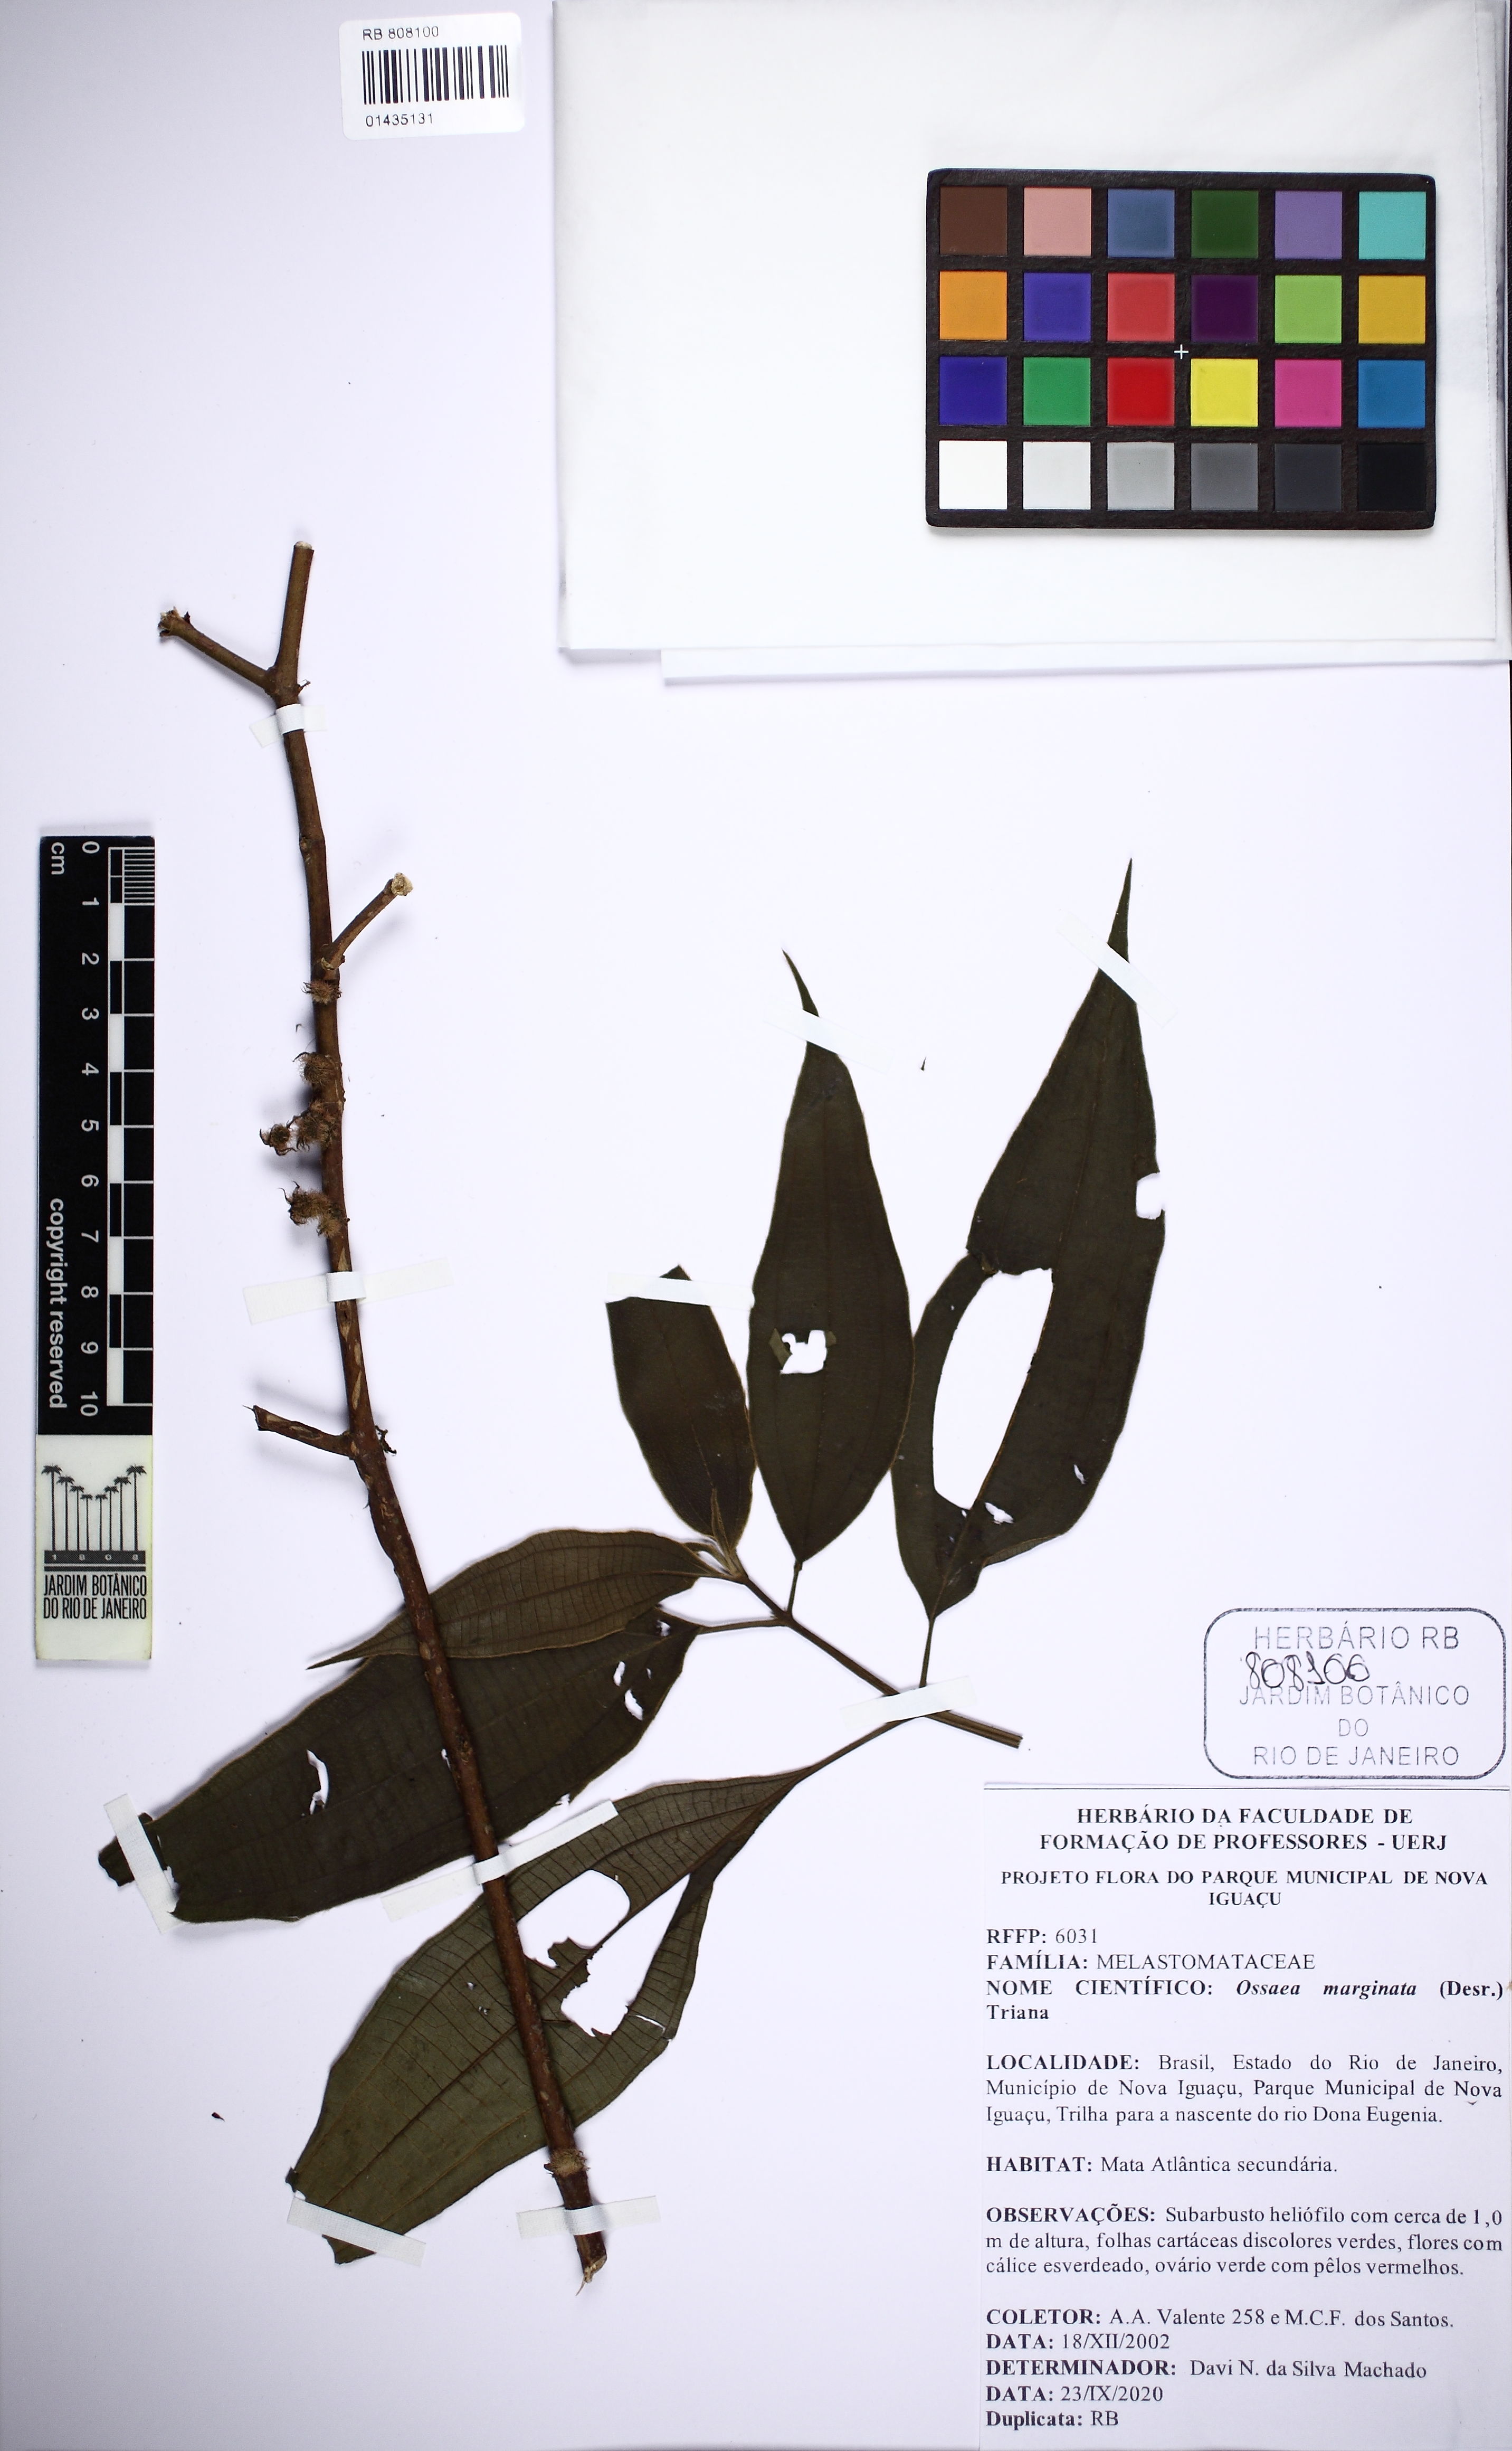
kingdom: Plantae
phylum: Tracheophyta
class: Magnoliopsida
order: Myrtales
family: Melastomataceae
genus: Miconia
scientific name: Miconia leamarginata
